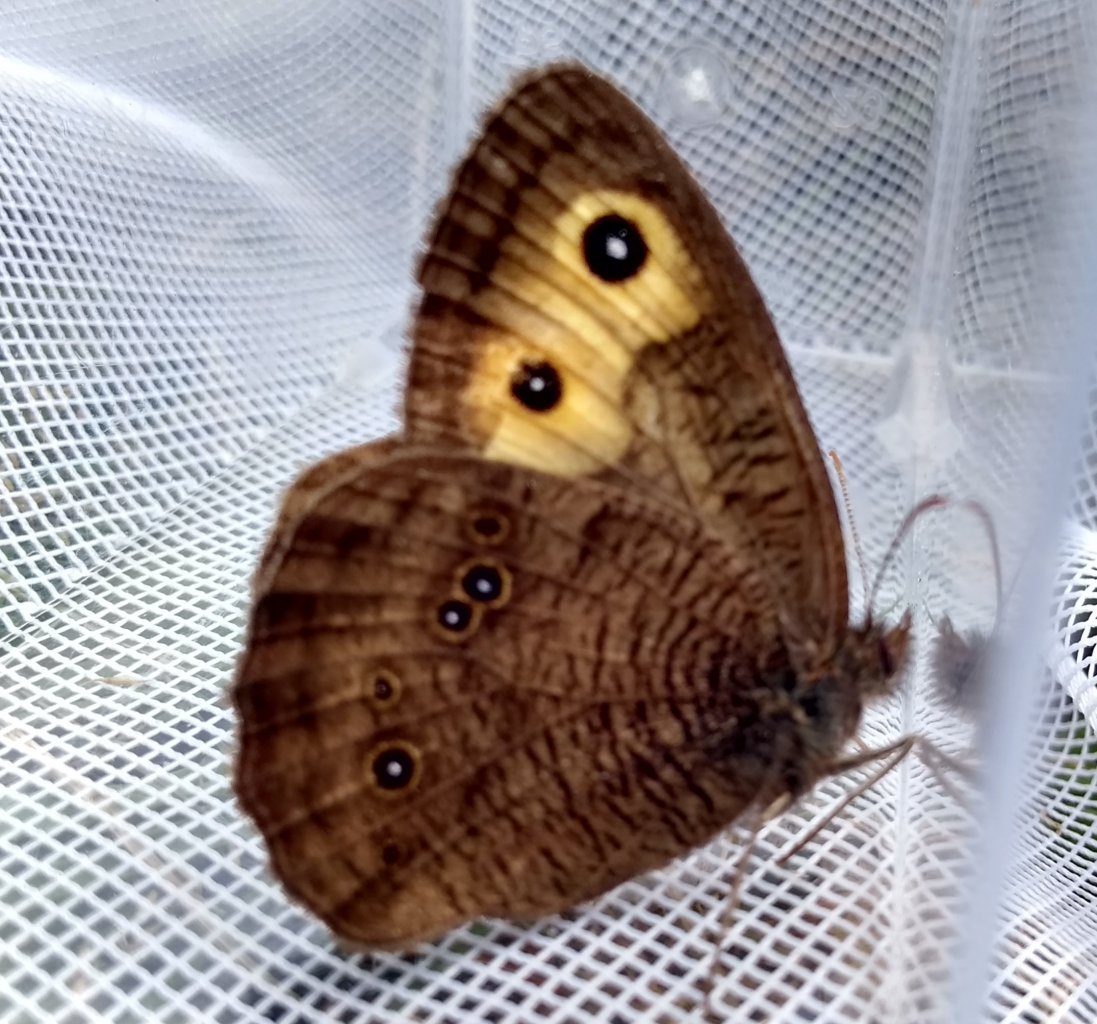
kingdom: Animalia
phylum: Arthropoda
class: Insecta
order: Lepidoptera
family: Nymphalidae
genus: Cercyonis
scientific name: Cercyonis pegala
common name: Common Wood-Nymph
